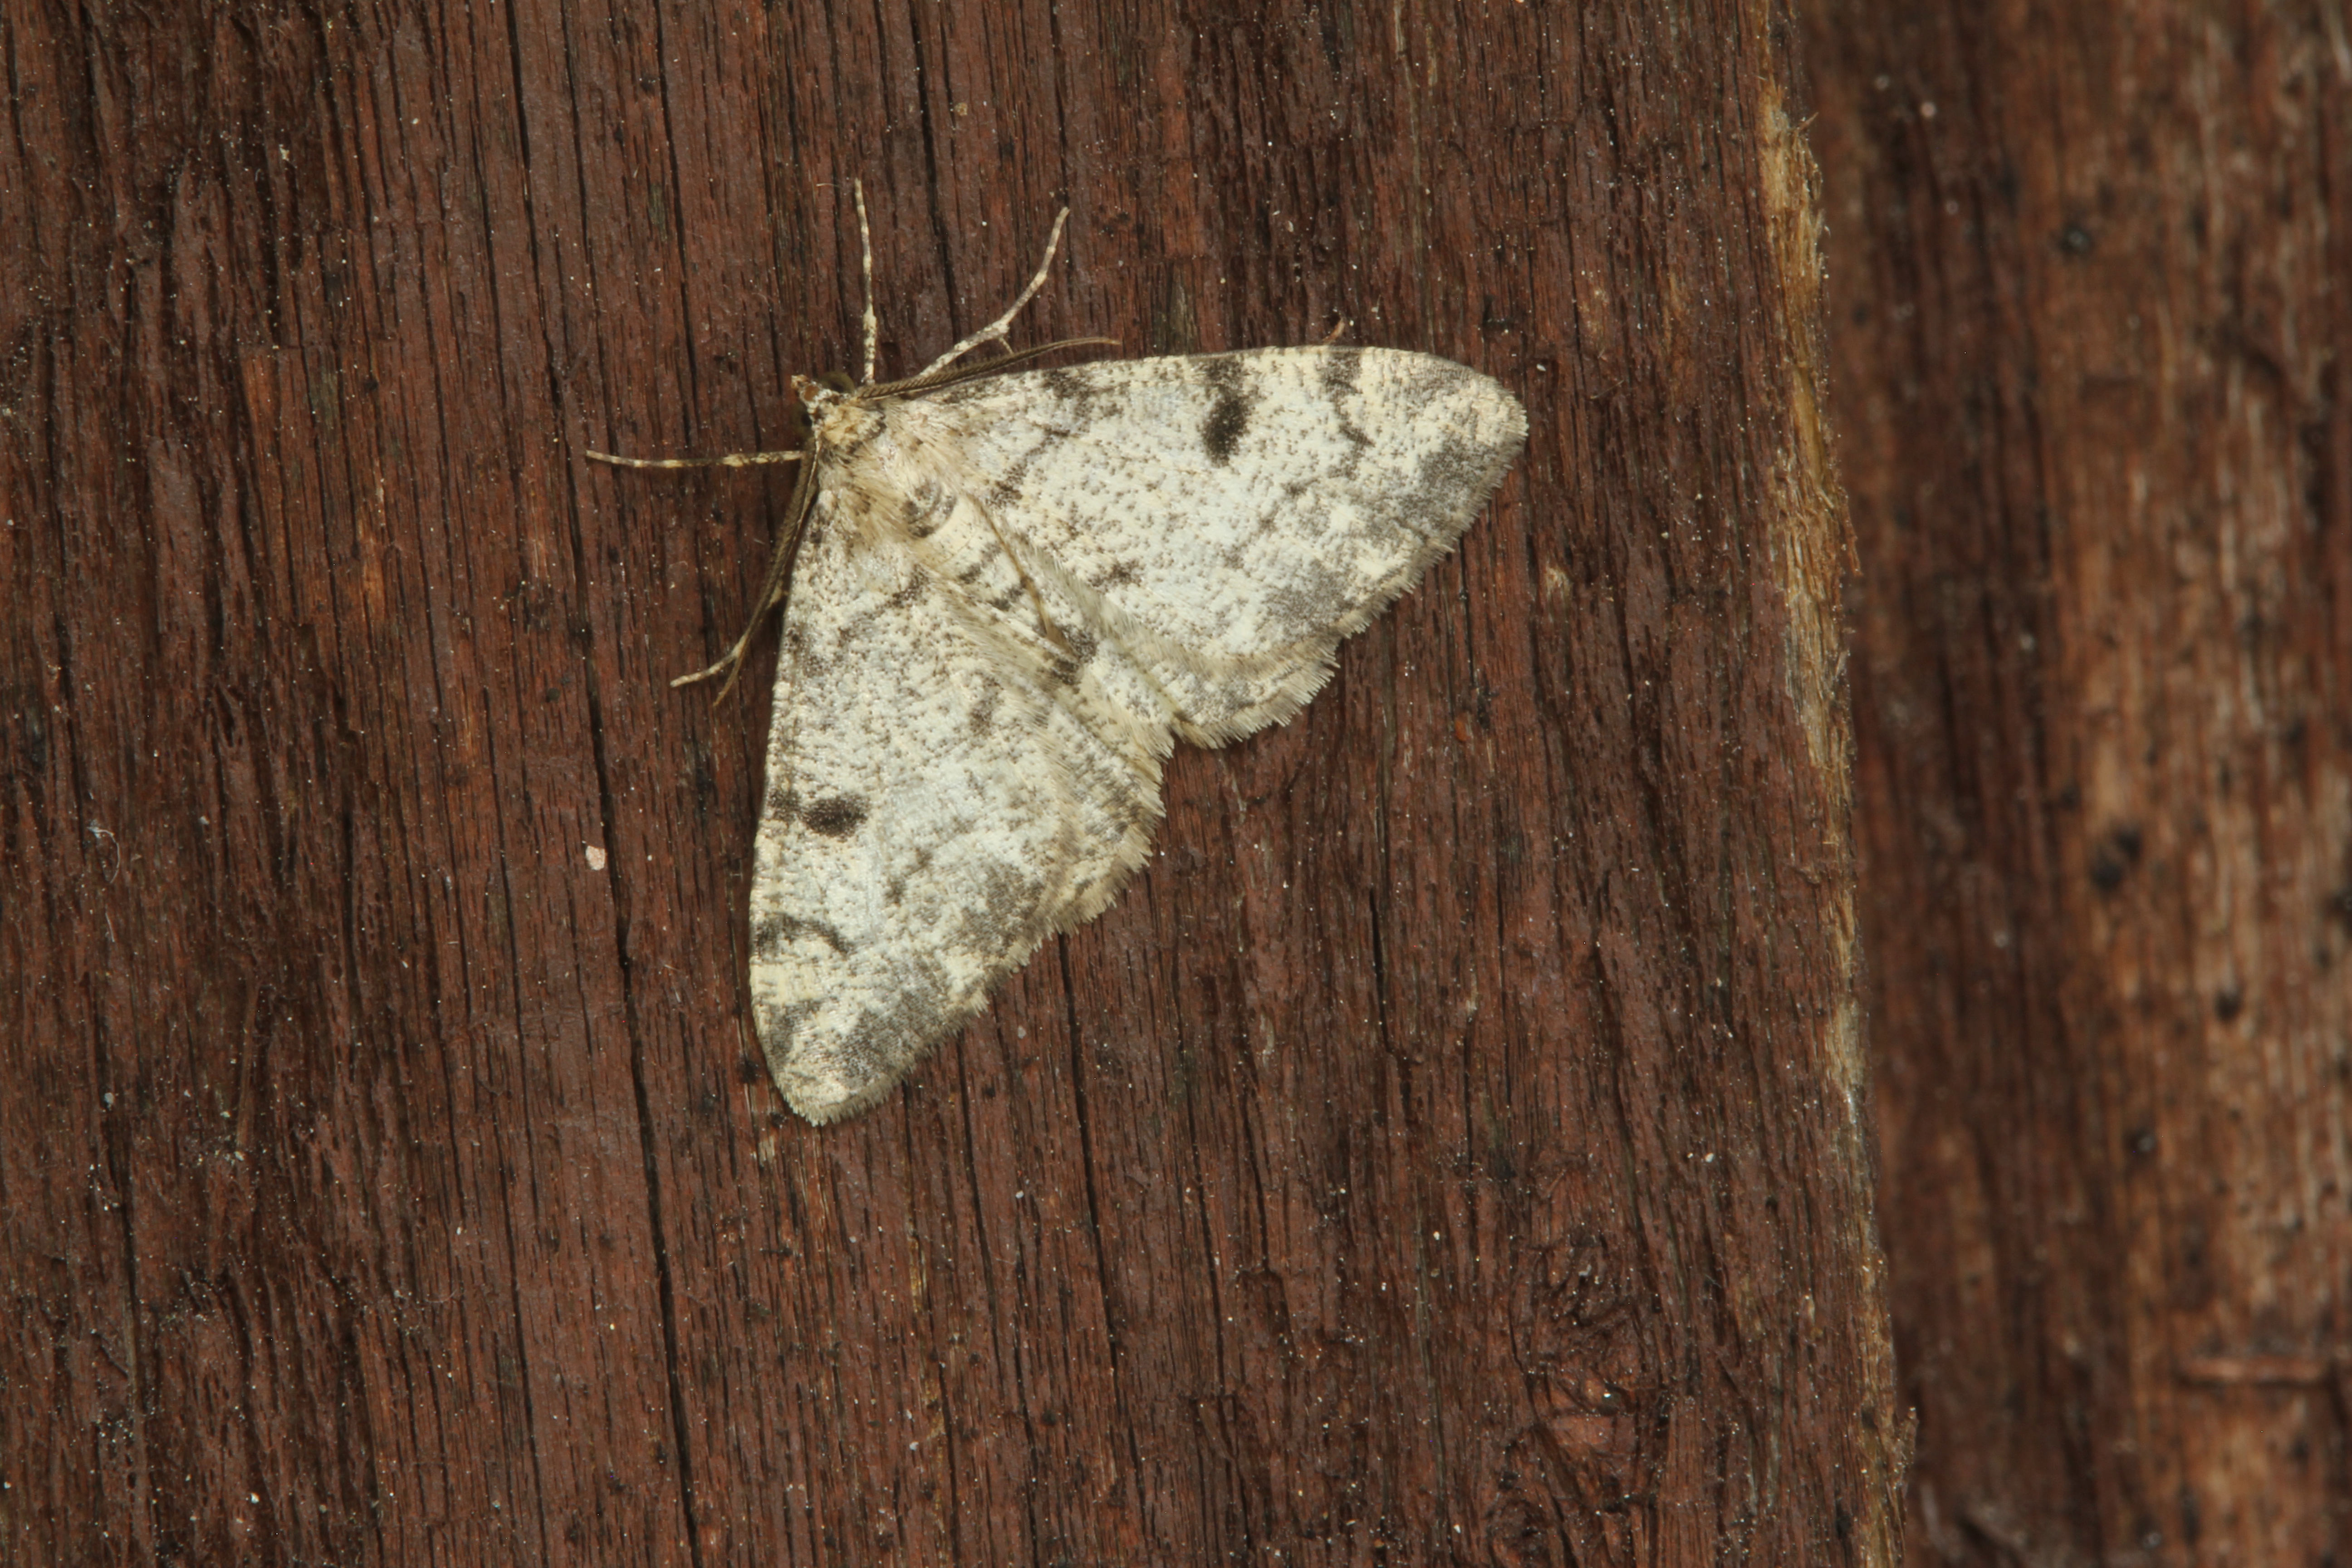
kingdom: Animalia
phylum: Arthropoda
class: Insecta
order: Lepidoptera
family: Geometridae
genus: Alcis
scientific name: Alcis jubata
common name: Dotted carpet
